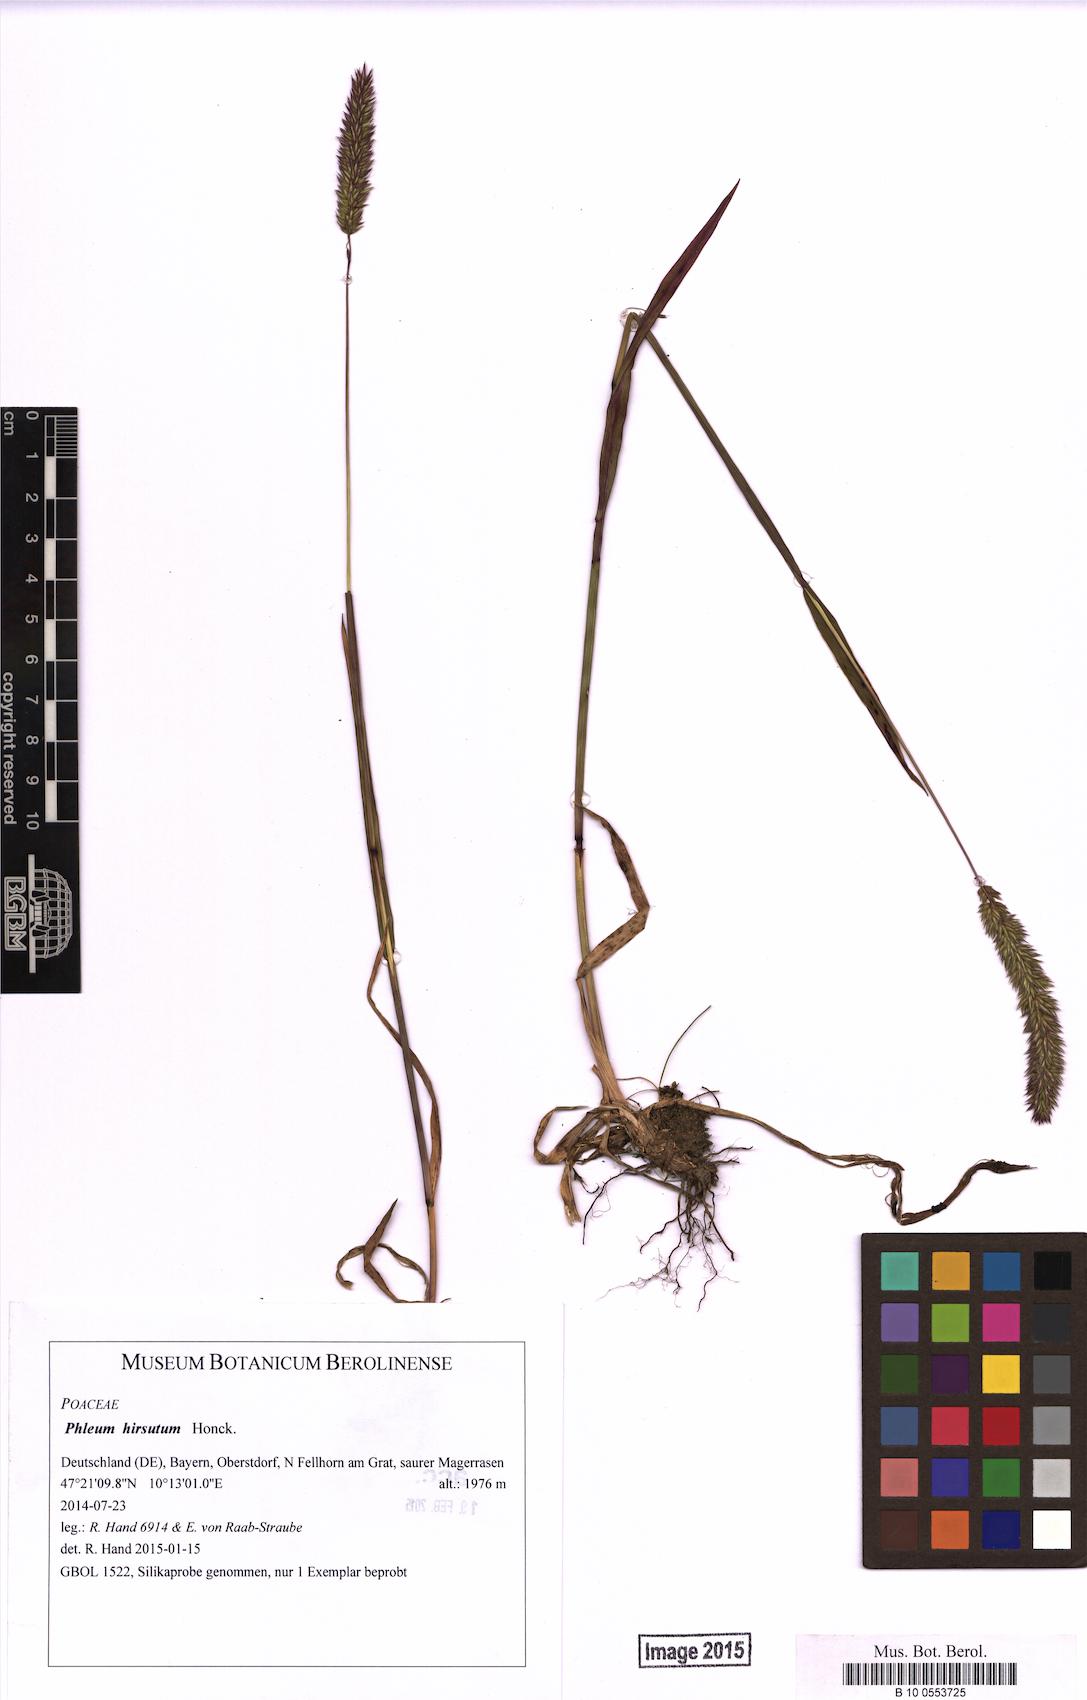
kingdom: Plantae
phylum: Tracheophyta
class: Liliopsida
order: Poales
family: Poaceae
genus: Phleum
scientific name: Phleum hirsutum
